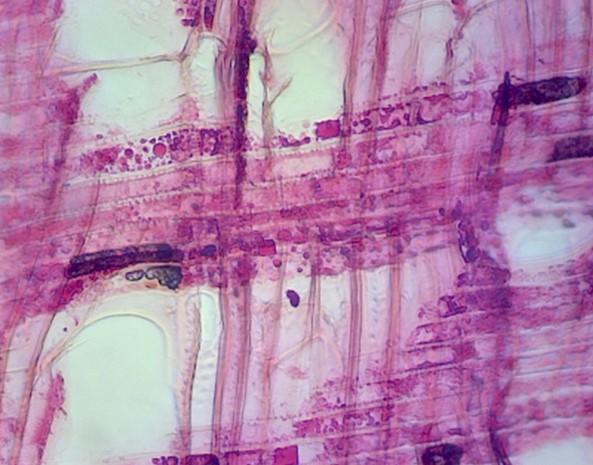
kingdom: Plantae
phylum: Tracheophyta
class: Magnoliopsida
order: Malpighiales
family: Salicaceae
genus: Populus
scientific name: Populus
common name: Álamo
